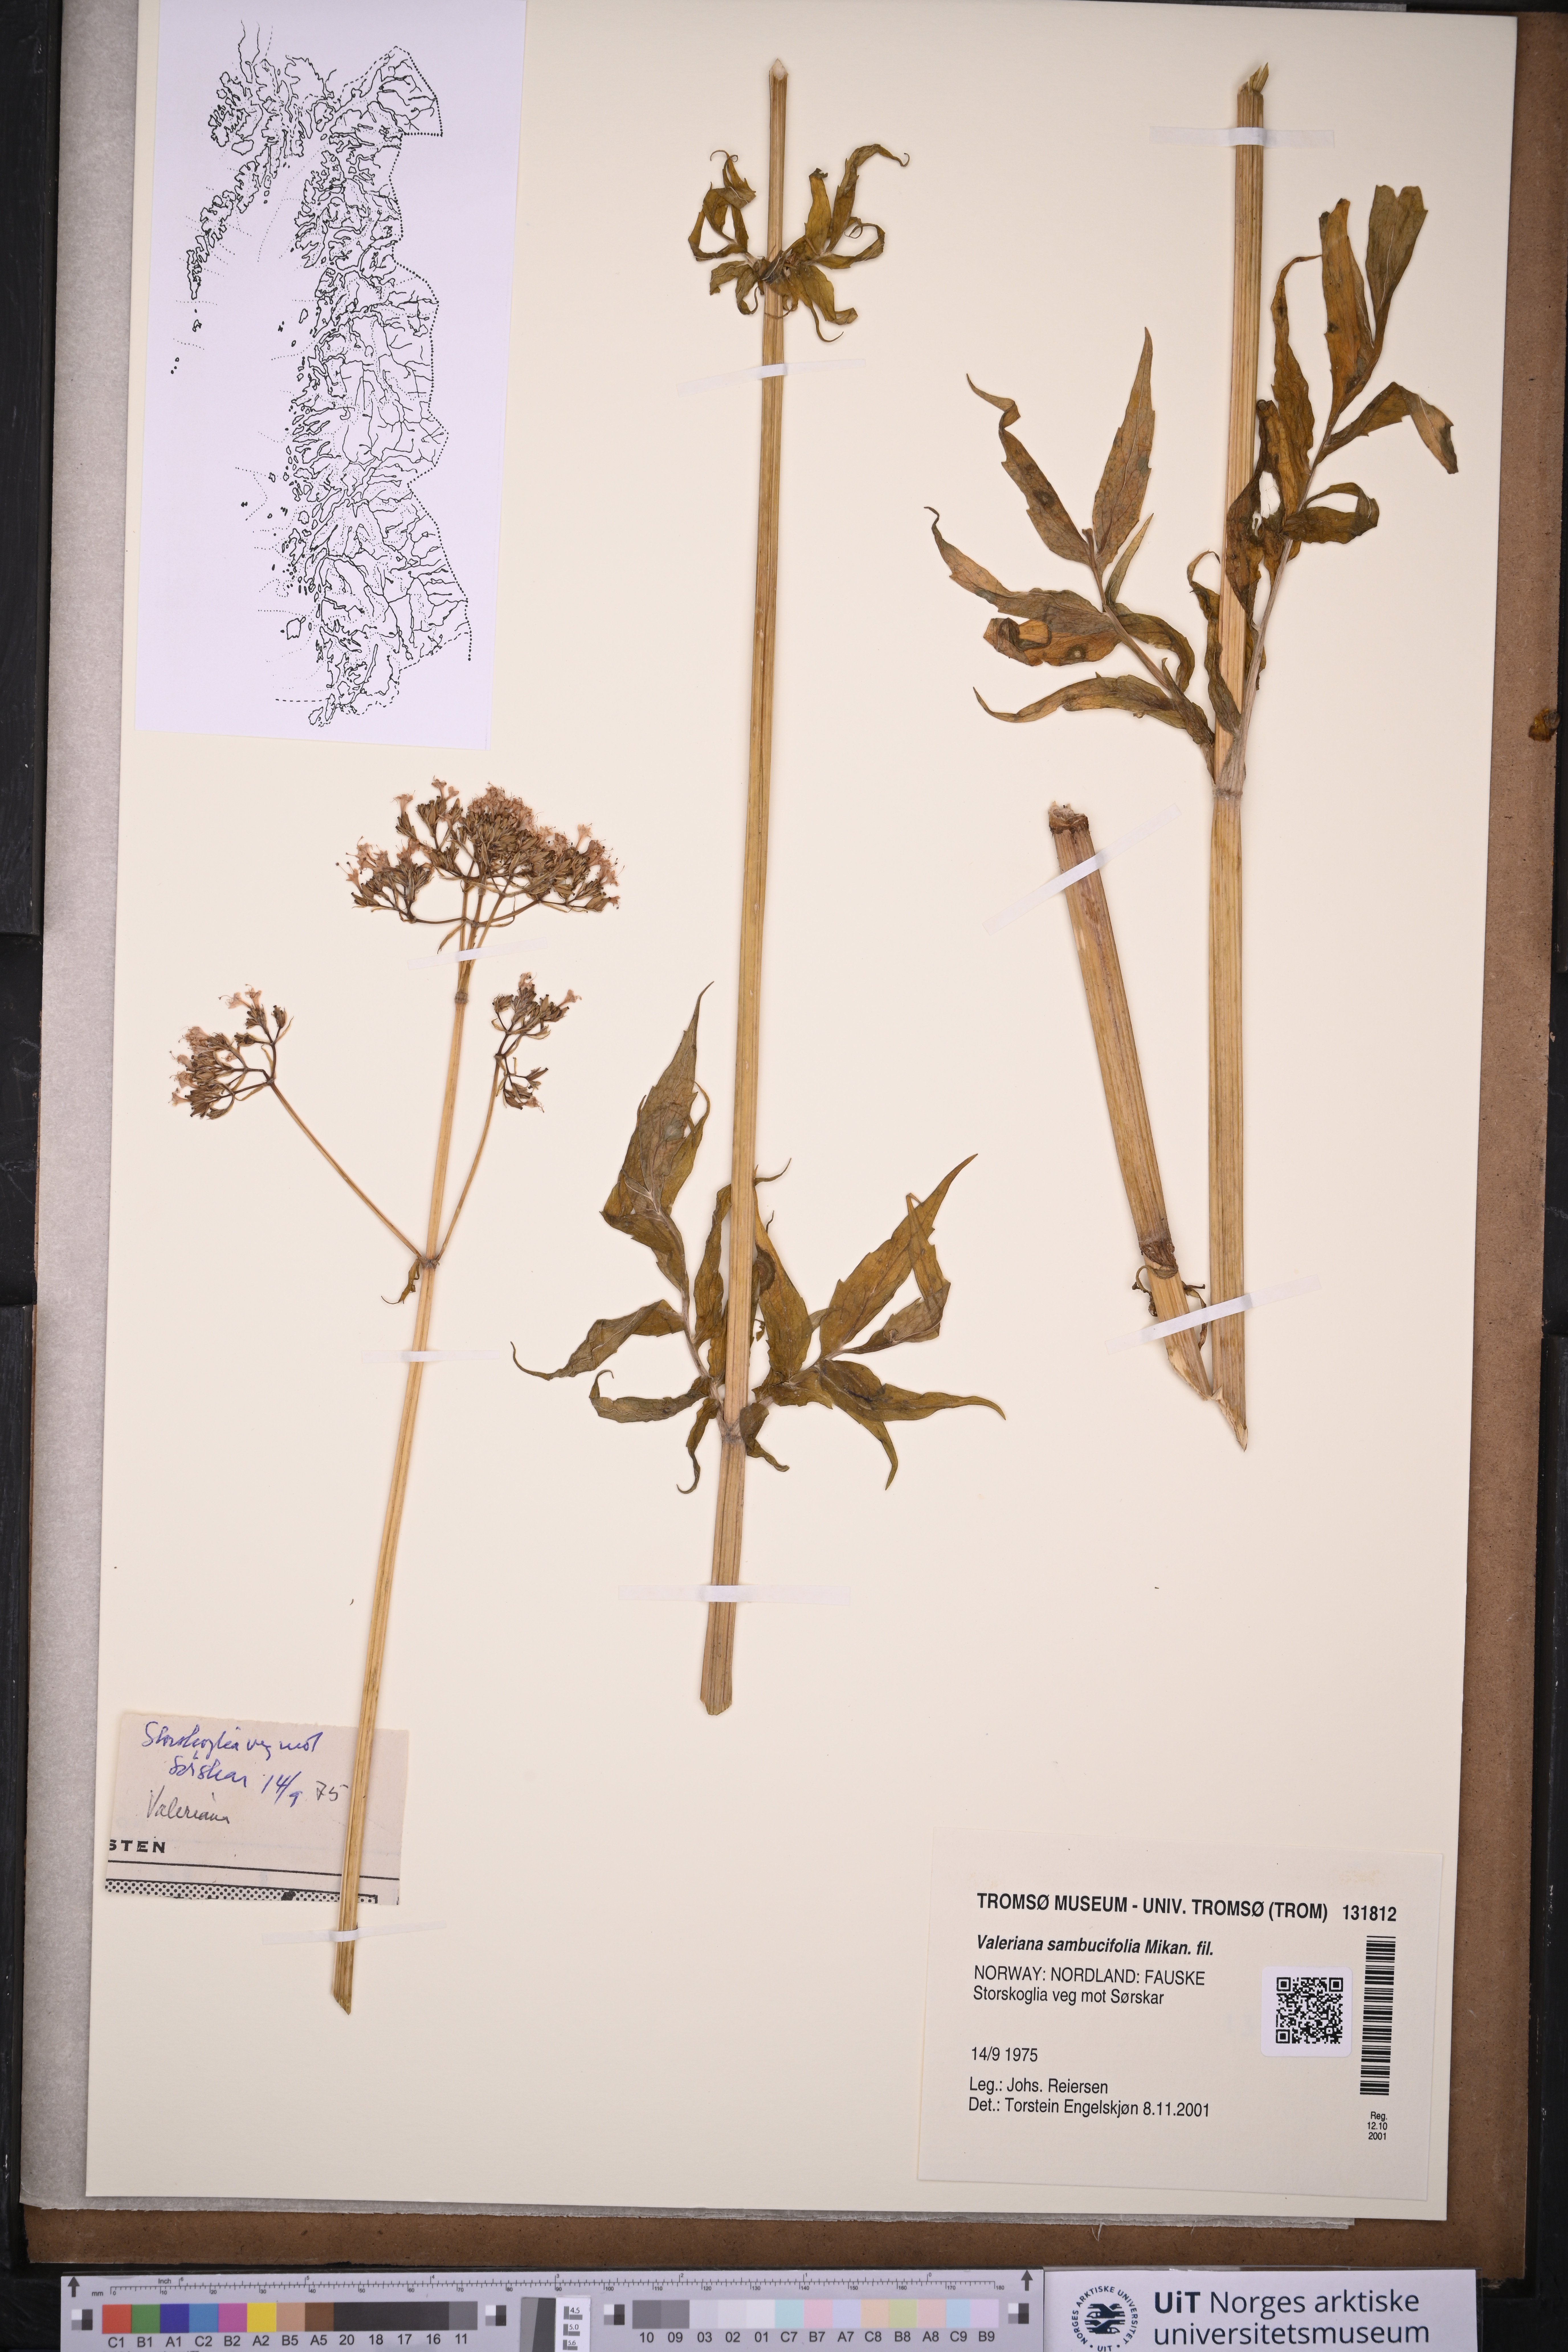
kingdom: Plantae
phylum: Tracheophyta
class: Magnoliopsida
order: Dipsacales
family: Caprifoliaceae
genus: Valeriana
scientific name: Valeriana excelsa
